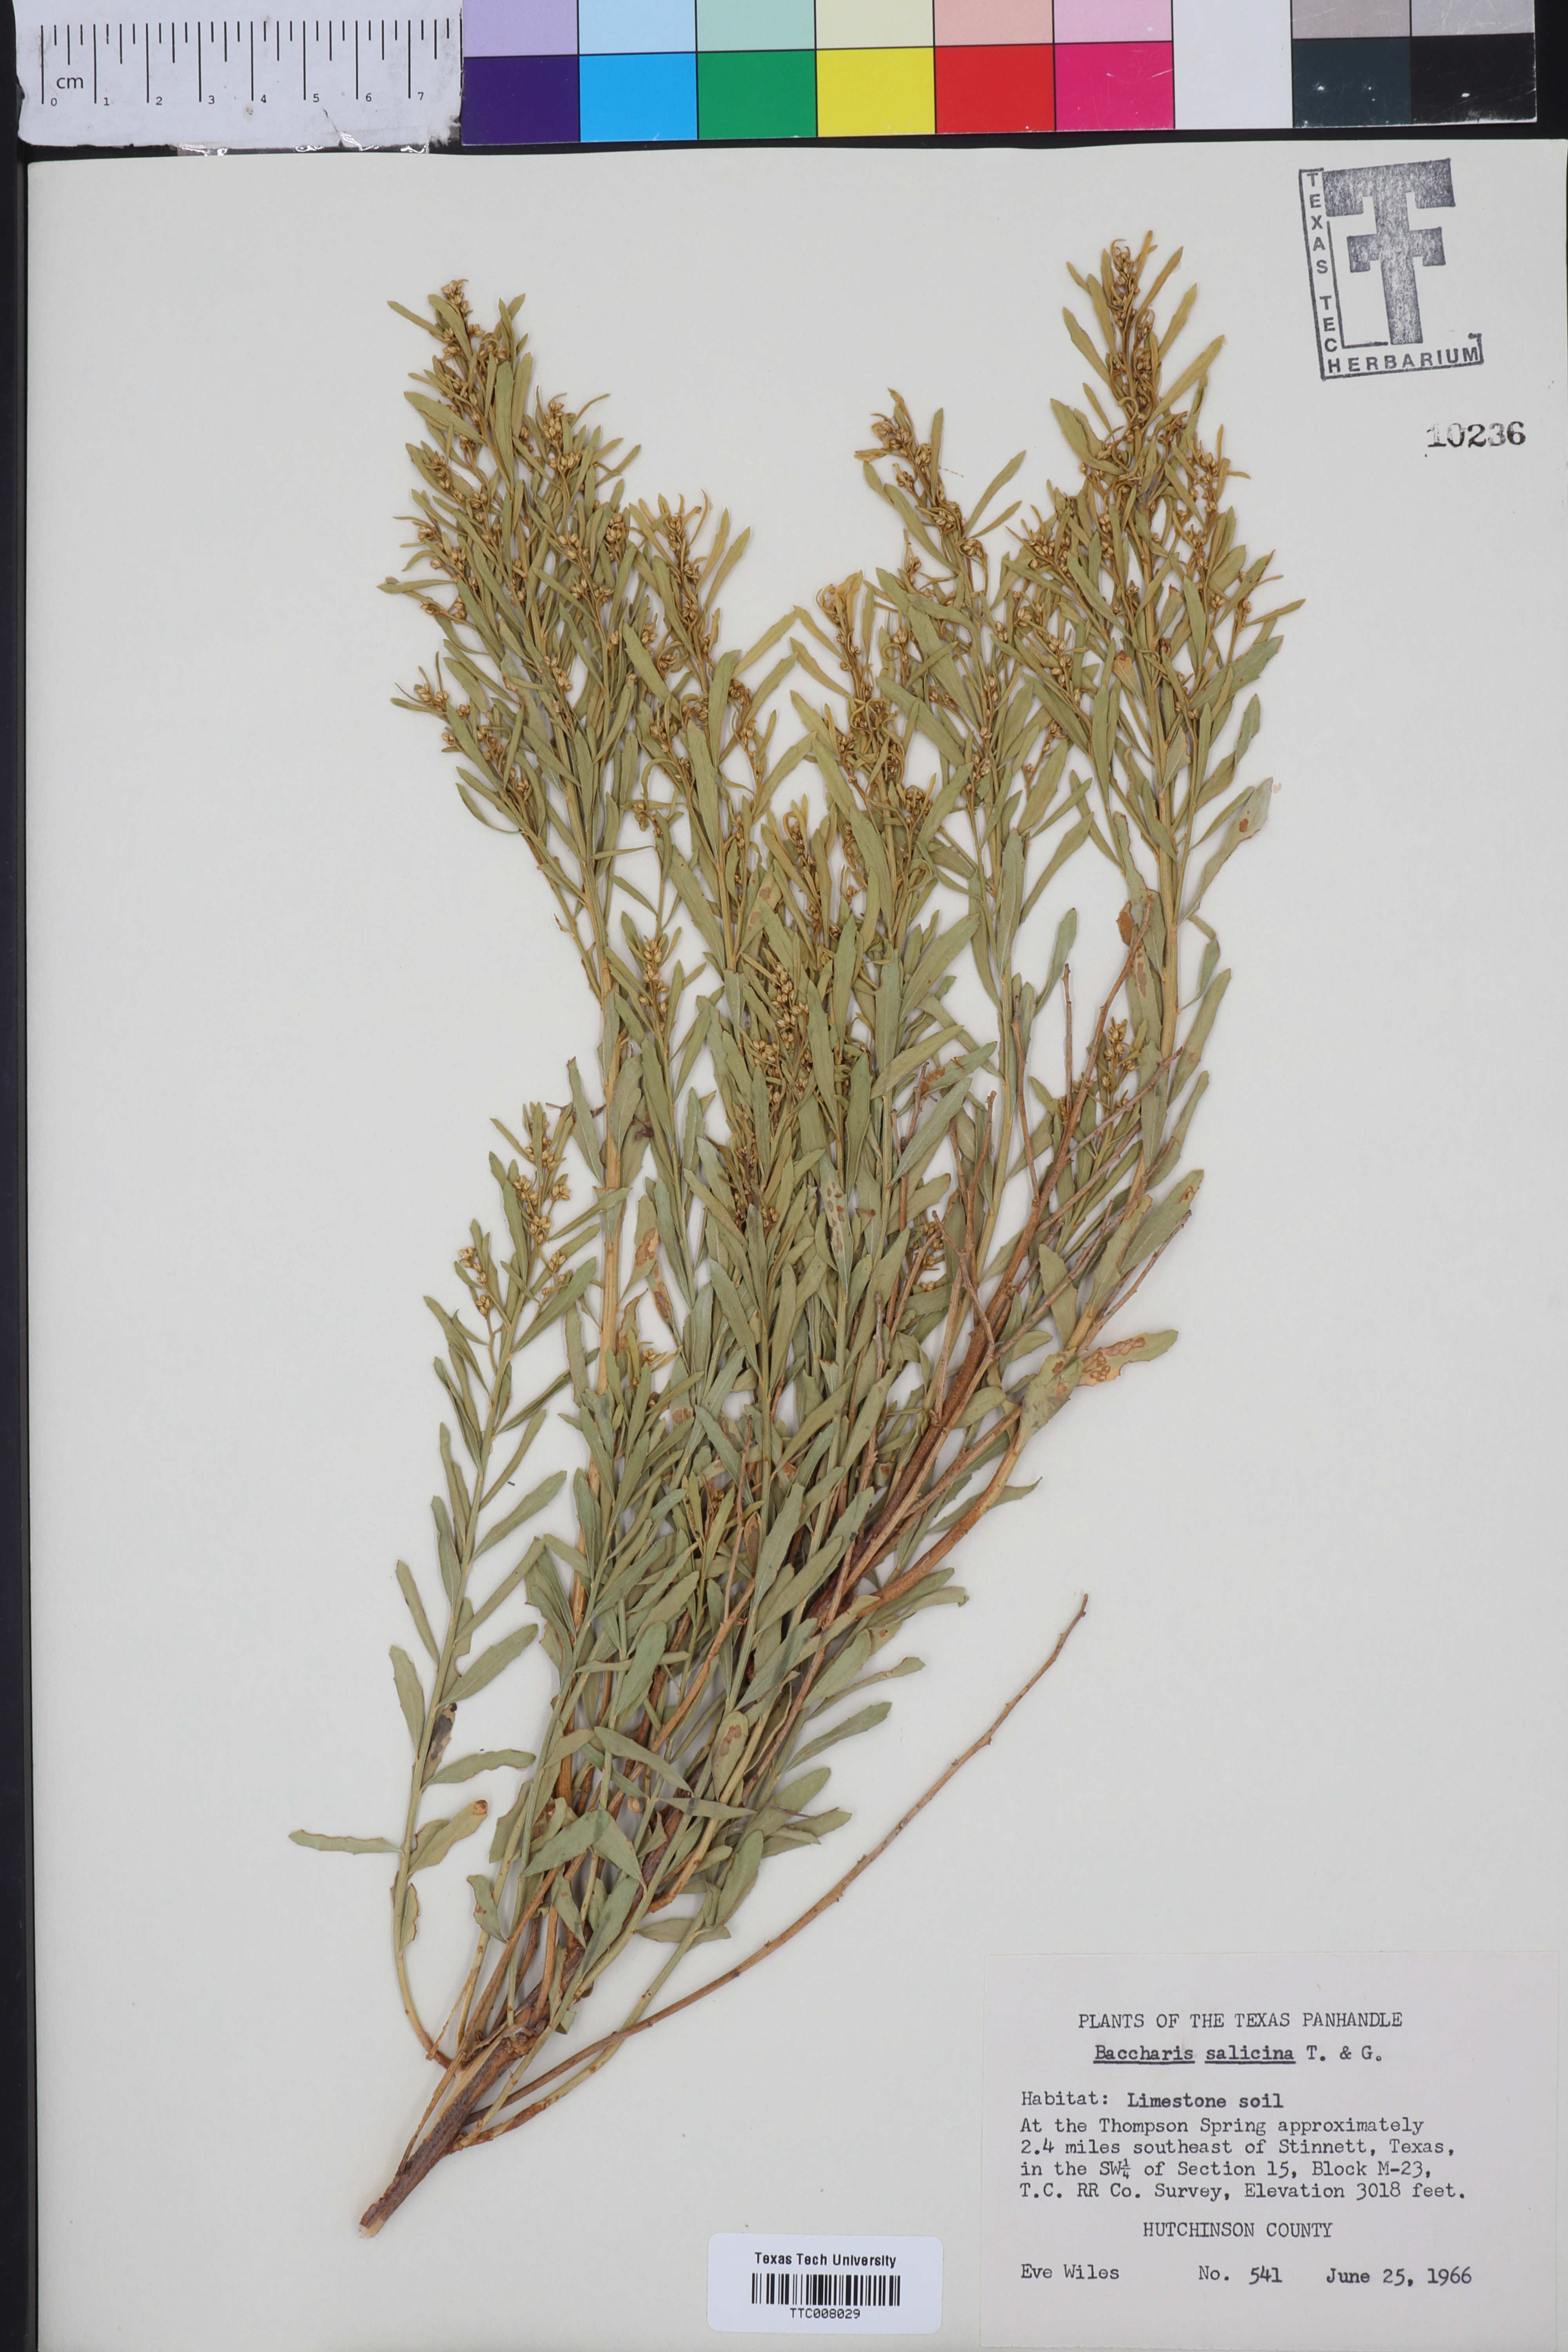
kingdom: Plantae
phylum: Tracheophyta
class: Magnoliopsida
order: Asterales
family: Asteraceae
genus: Baccharis
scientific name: Baccharis salicina
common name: Willow baccharis
